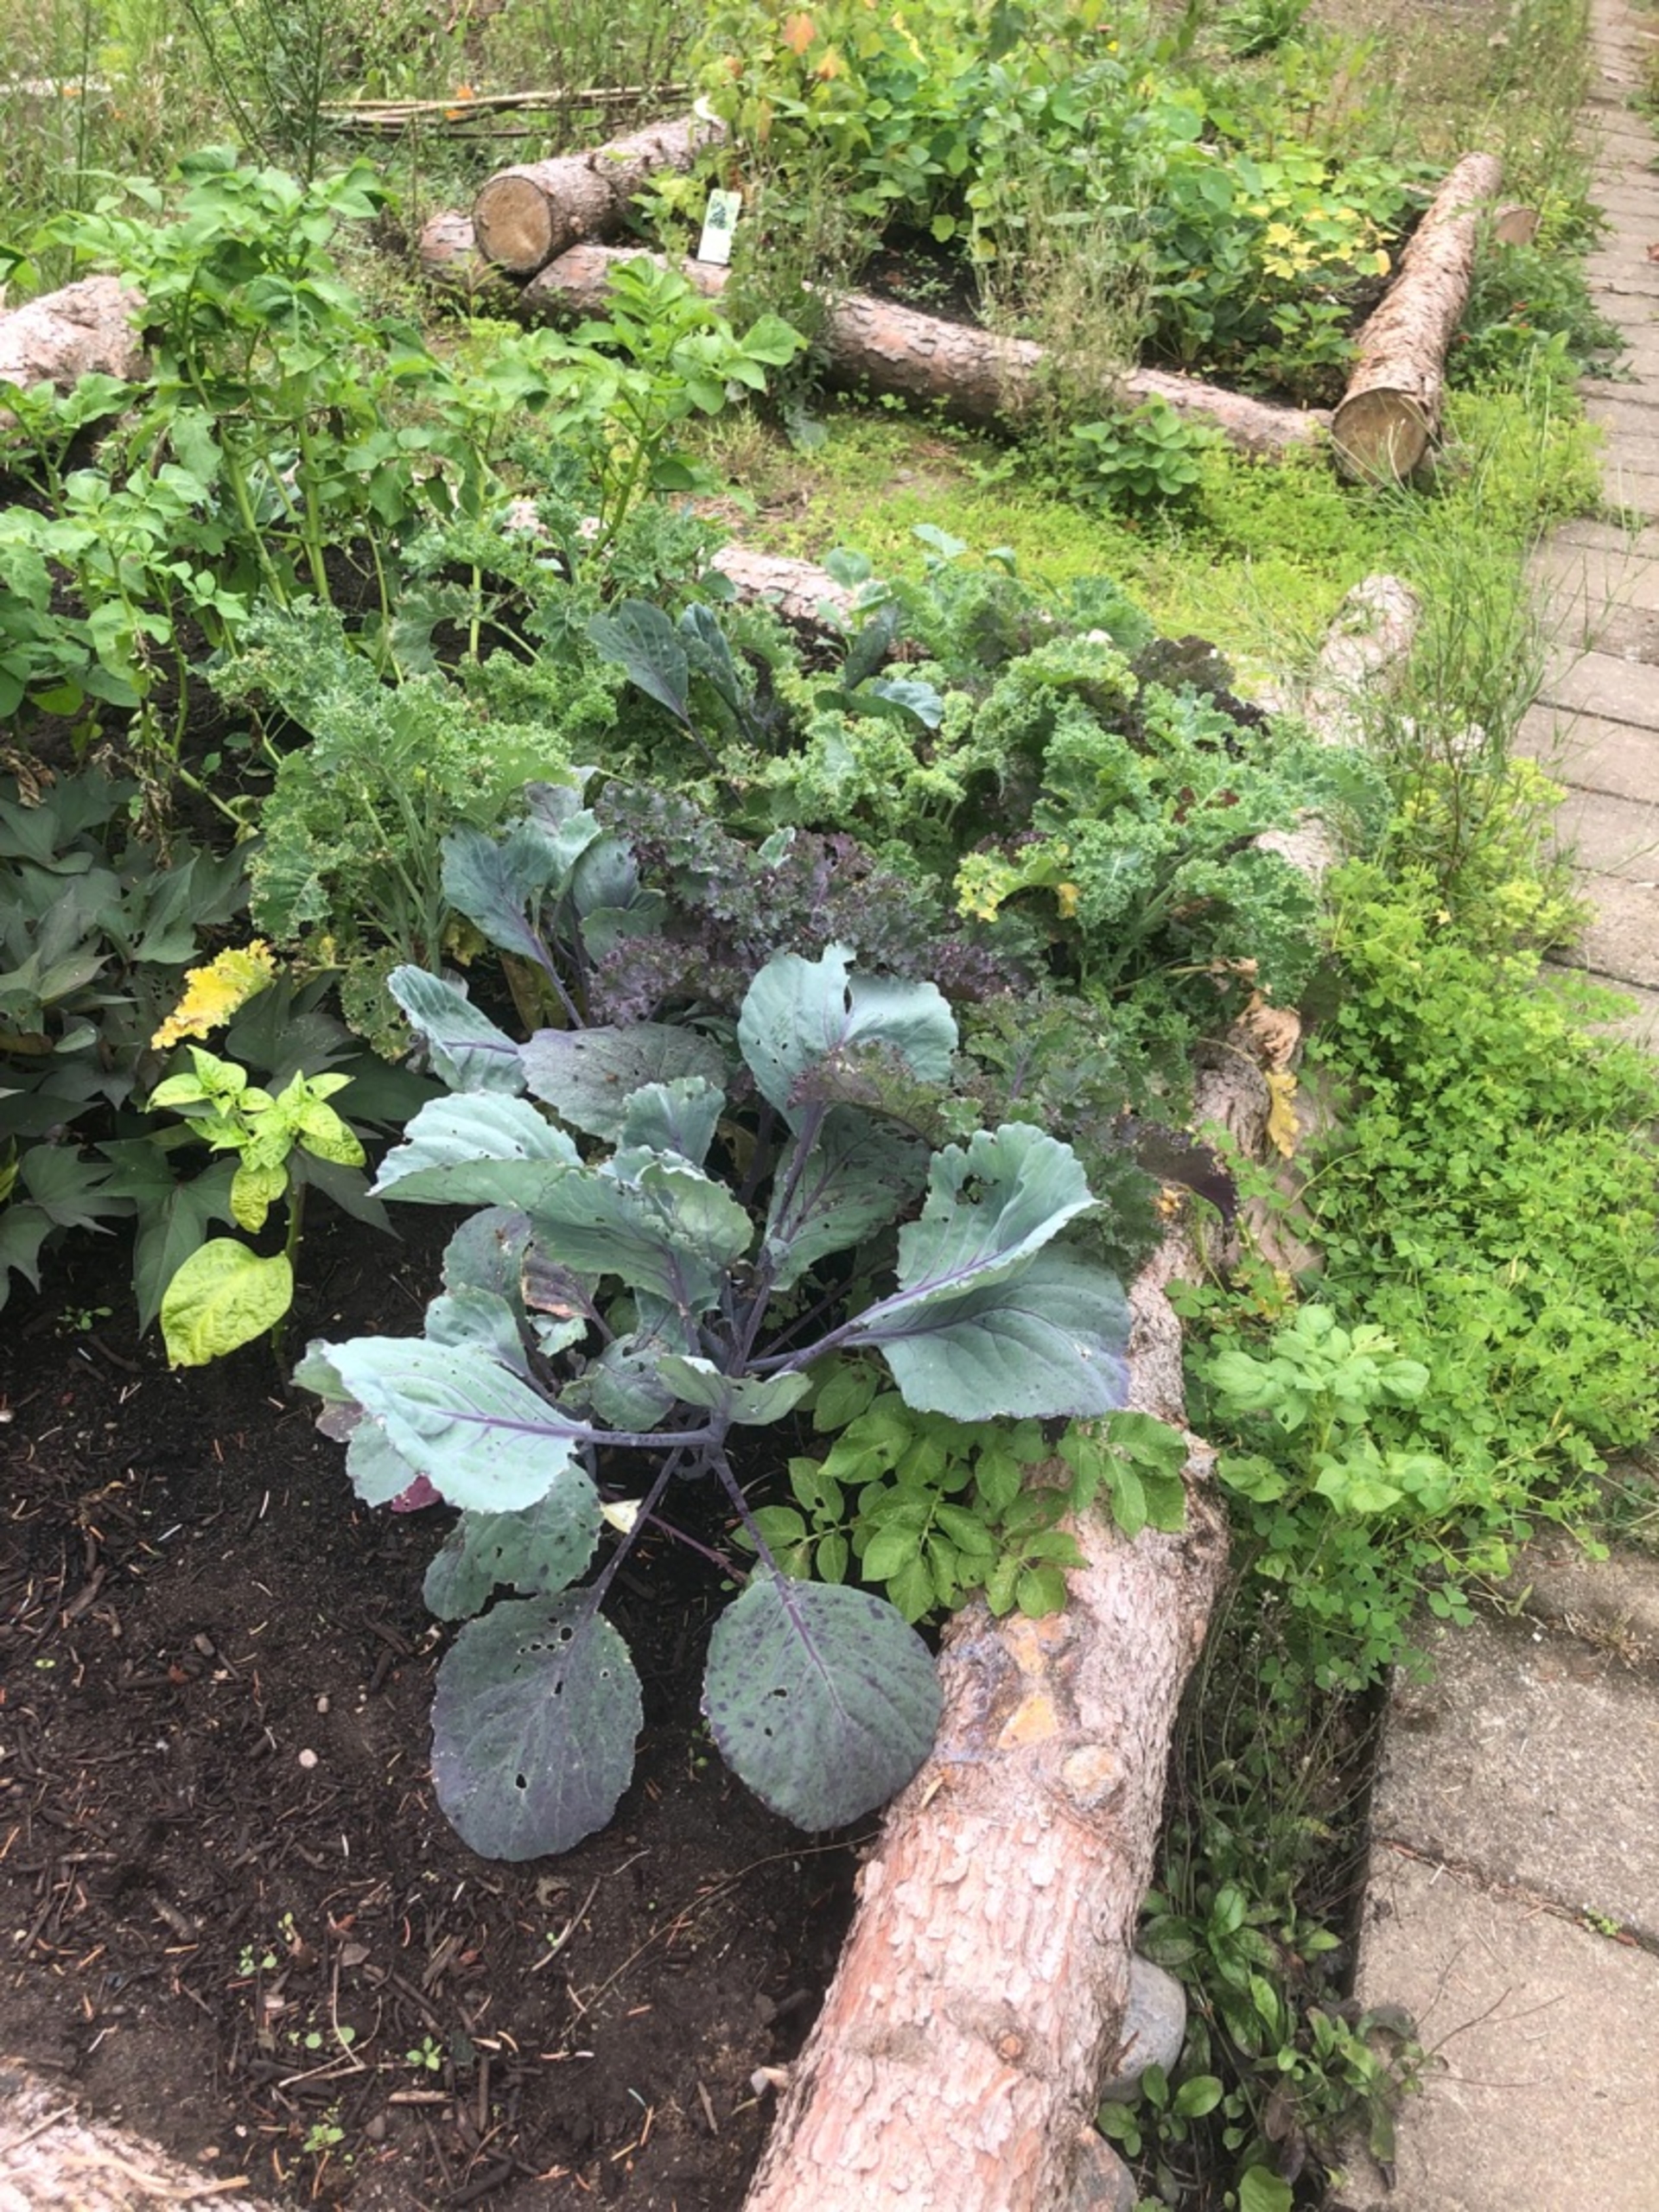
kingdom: Animalia
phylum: Arthropoda
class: Insecta
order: Lepidoptera
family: Pieridae
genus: Pieris
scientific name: Pieris brassicae
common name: Stor kålsommerfugl
